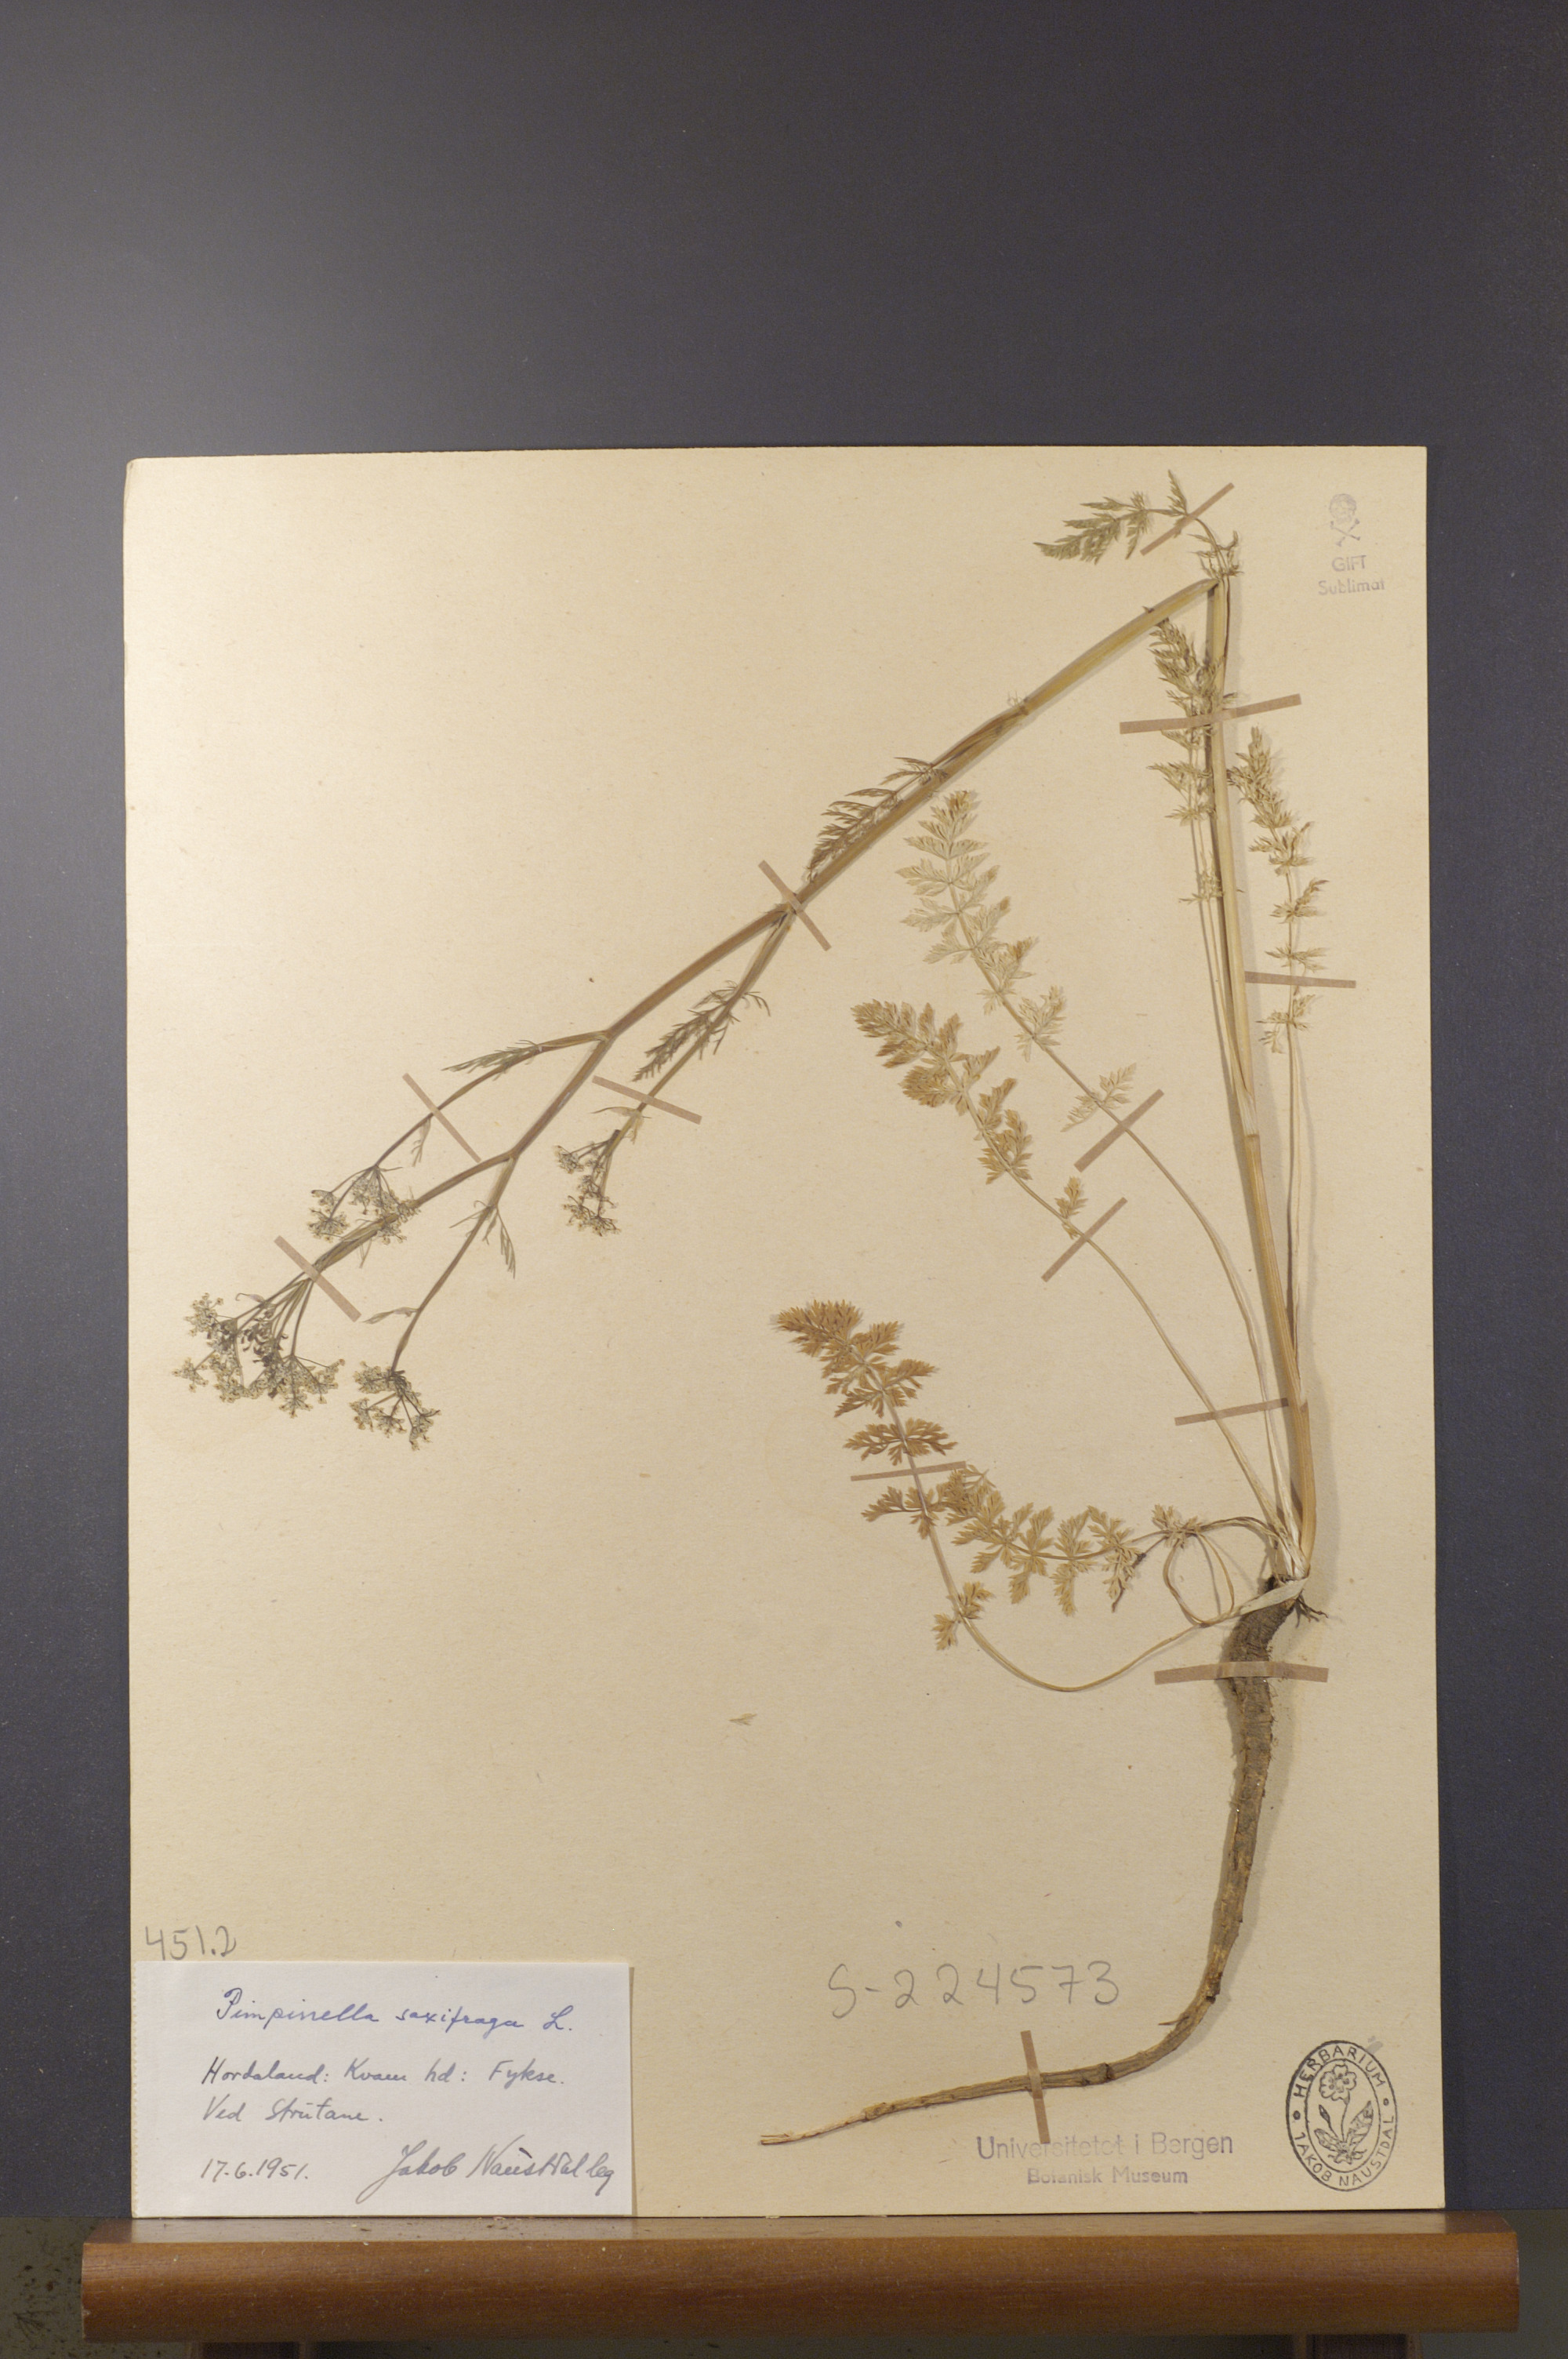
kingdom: Plantae
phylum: Tracheophyta
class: Magnoliopsida
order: Apiales
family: Apiaceae
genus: Pimpinella
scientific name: Pimpinella saxifraga
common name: Burnet-saxifrage
